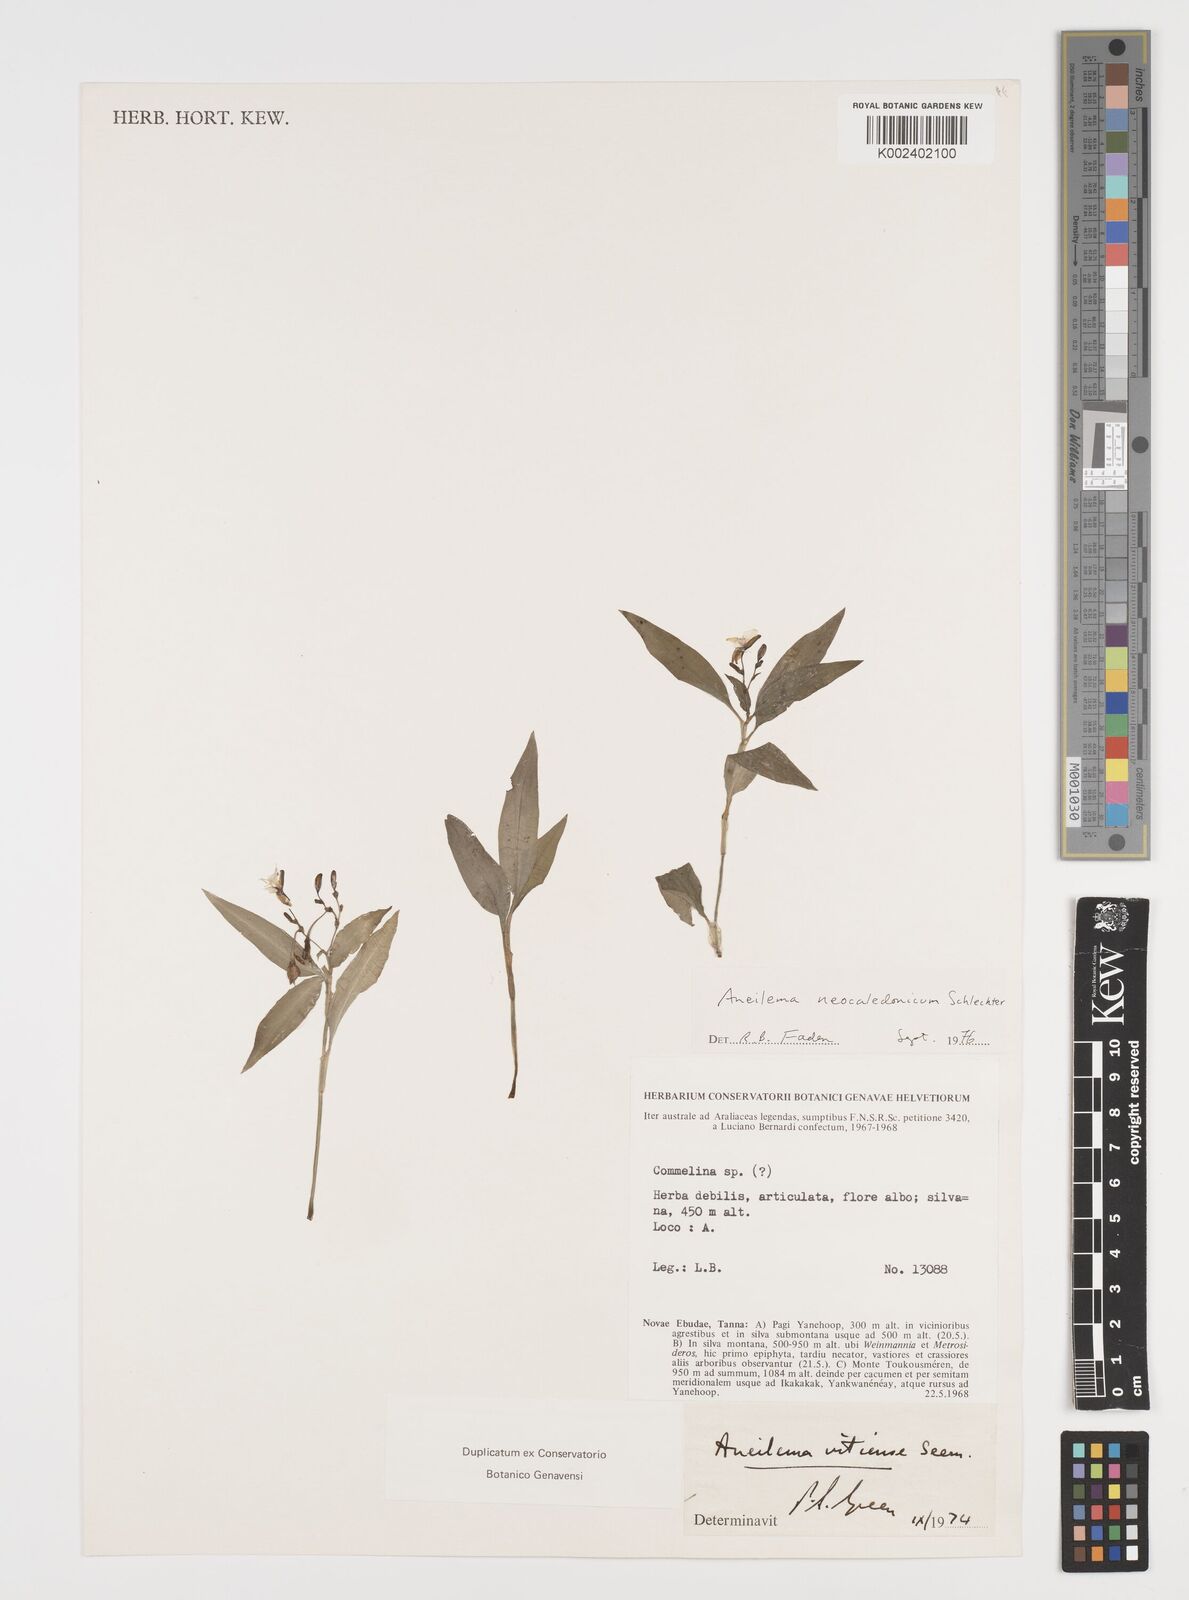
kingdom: Plantae
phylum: Tracheophyta
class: Liliopsida
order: Commelinales
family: Commelinaceae
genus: Aneilema
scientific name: Aneilema neocaledonicum
